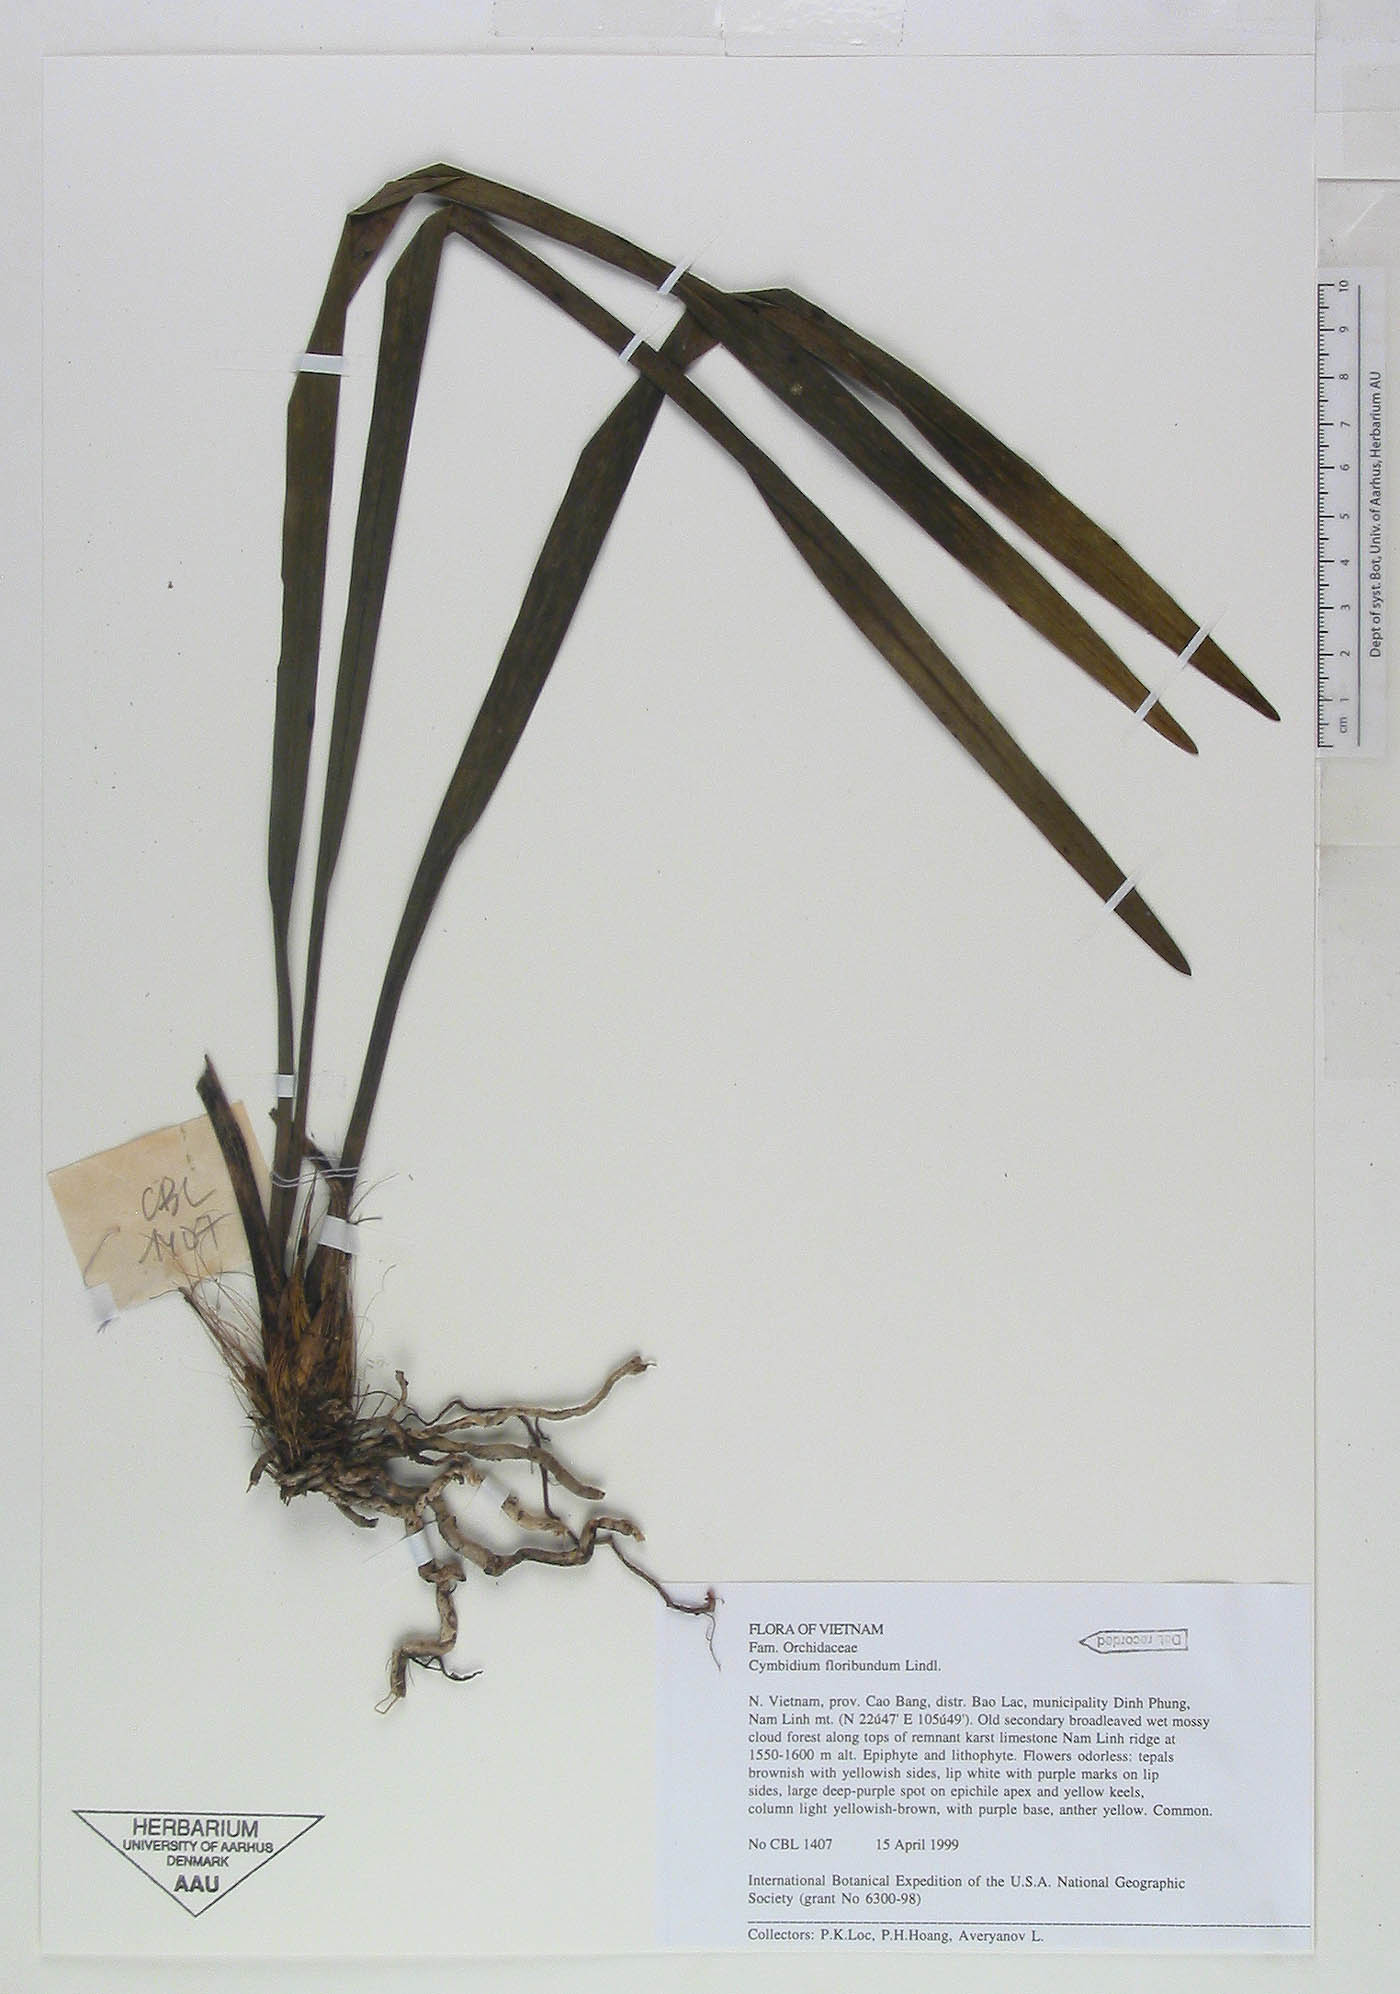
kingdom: Plantae
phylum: Tracheophyta
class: Liliopsida
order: Asparagales
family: Orchidaceae
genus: Cymbidium
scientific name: Cymbidium floribundum
